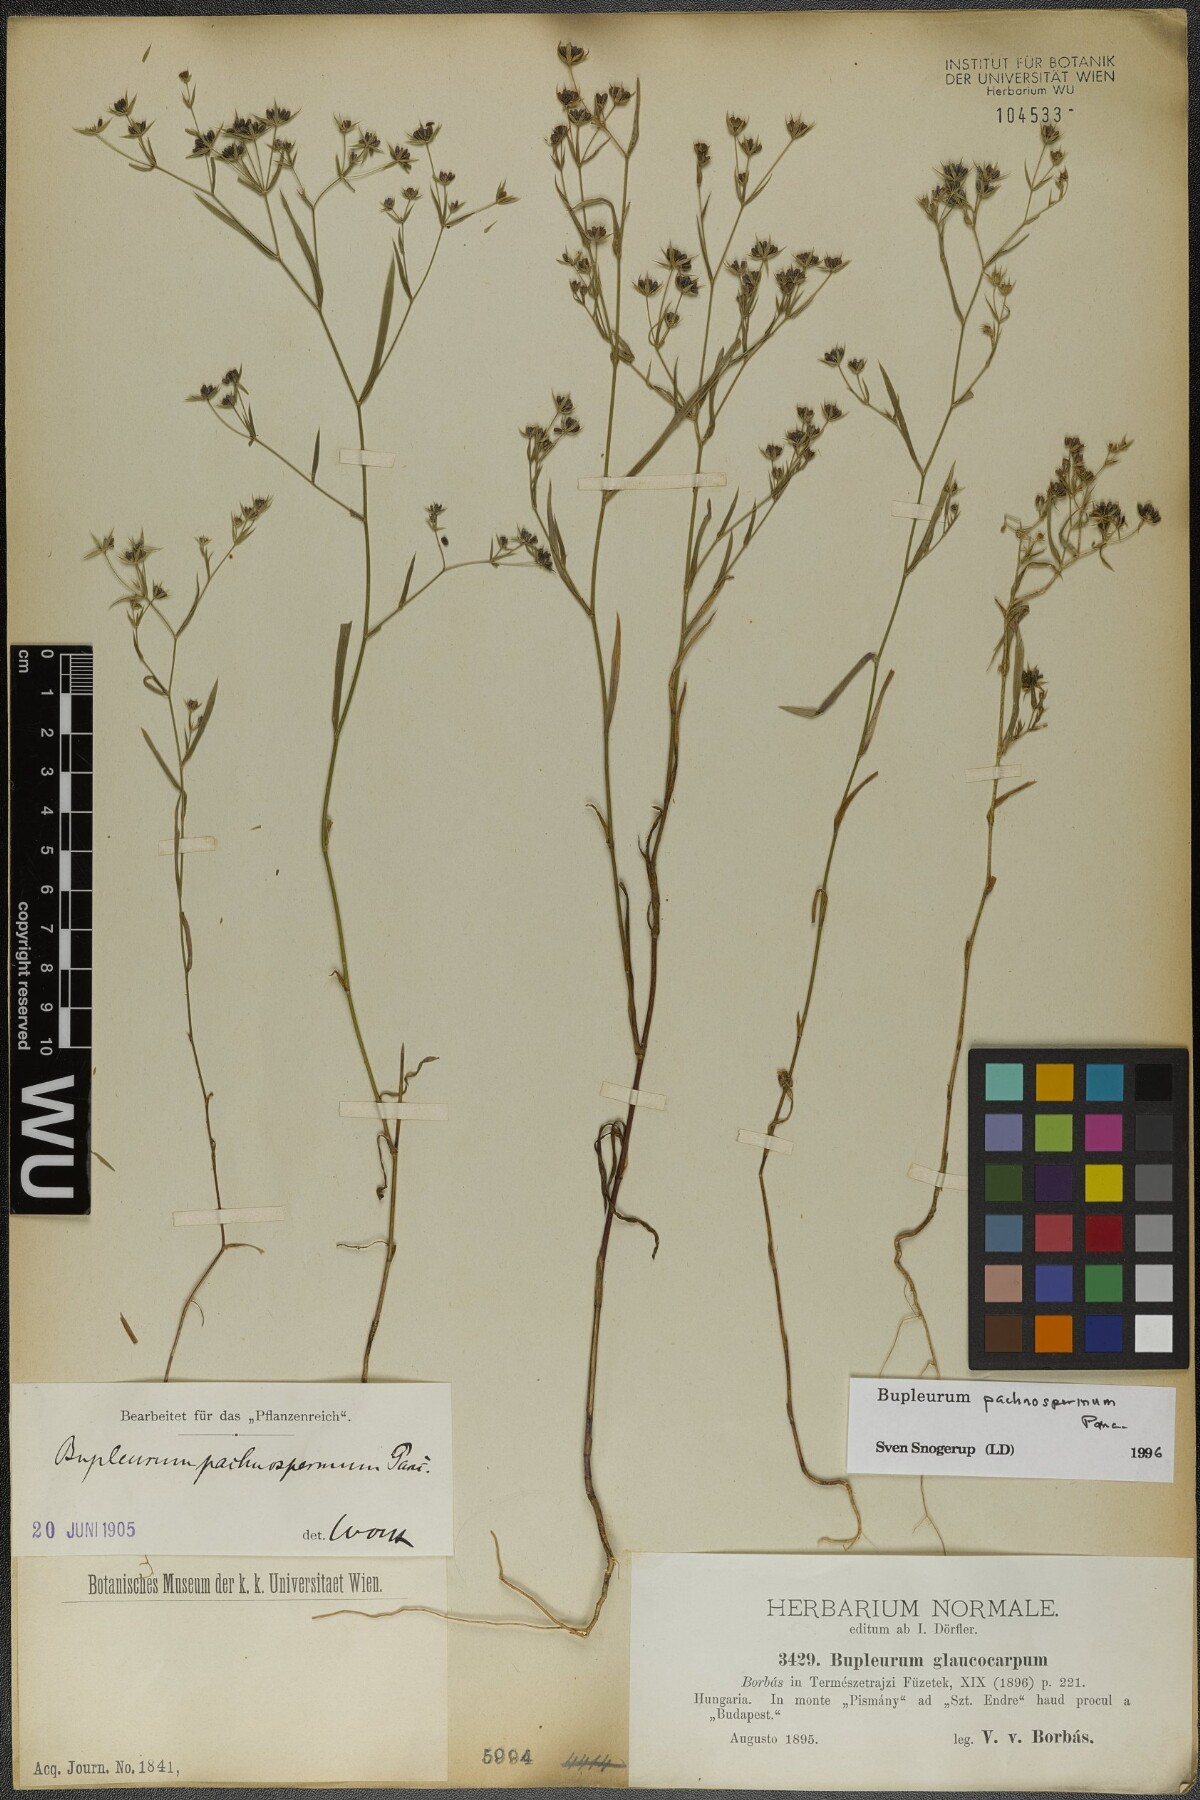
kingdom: Plantae
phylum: Tracheophyta
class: Magnoliopsida
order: Apiales
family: Apiaceae
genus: Bupleurum
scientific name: Bupleurum pachnospermum
